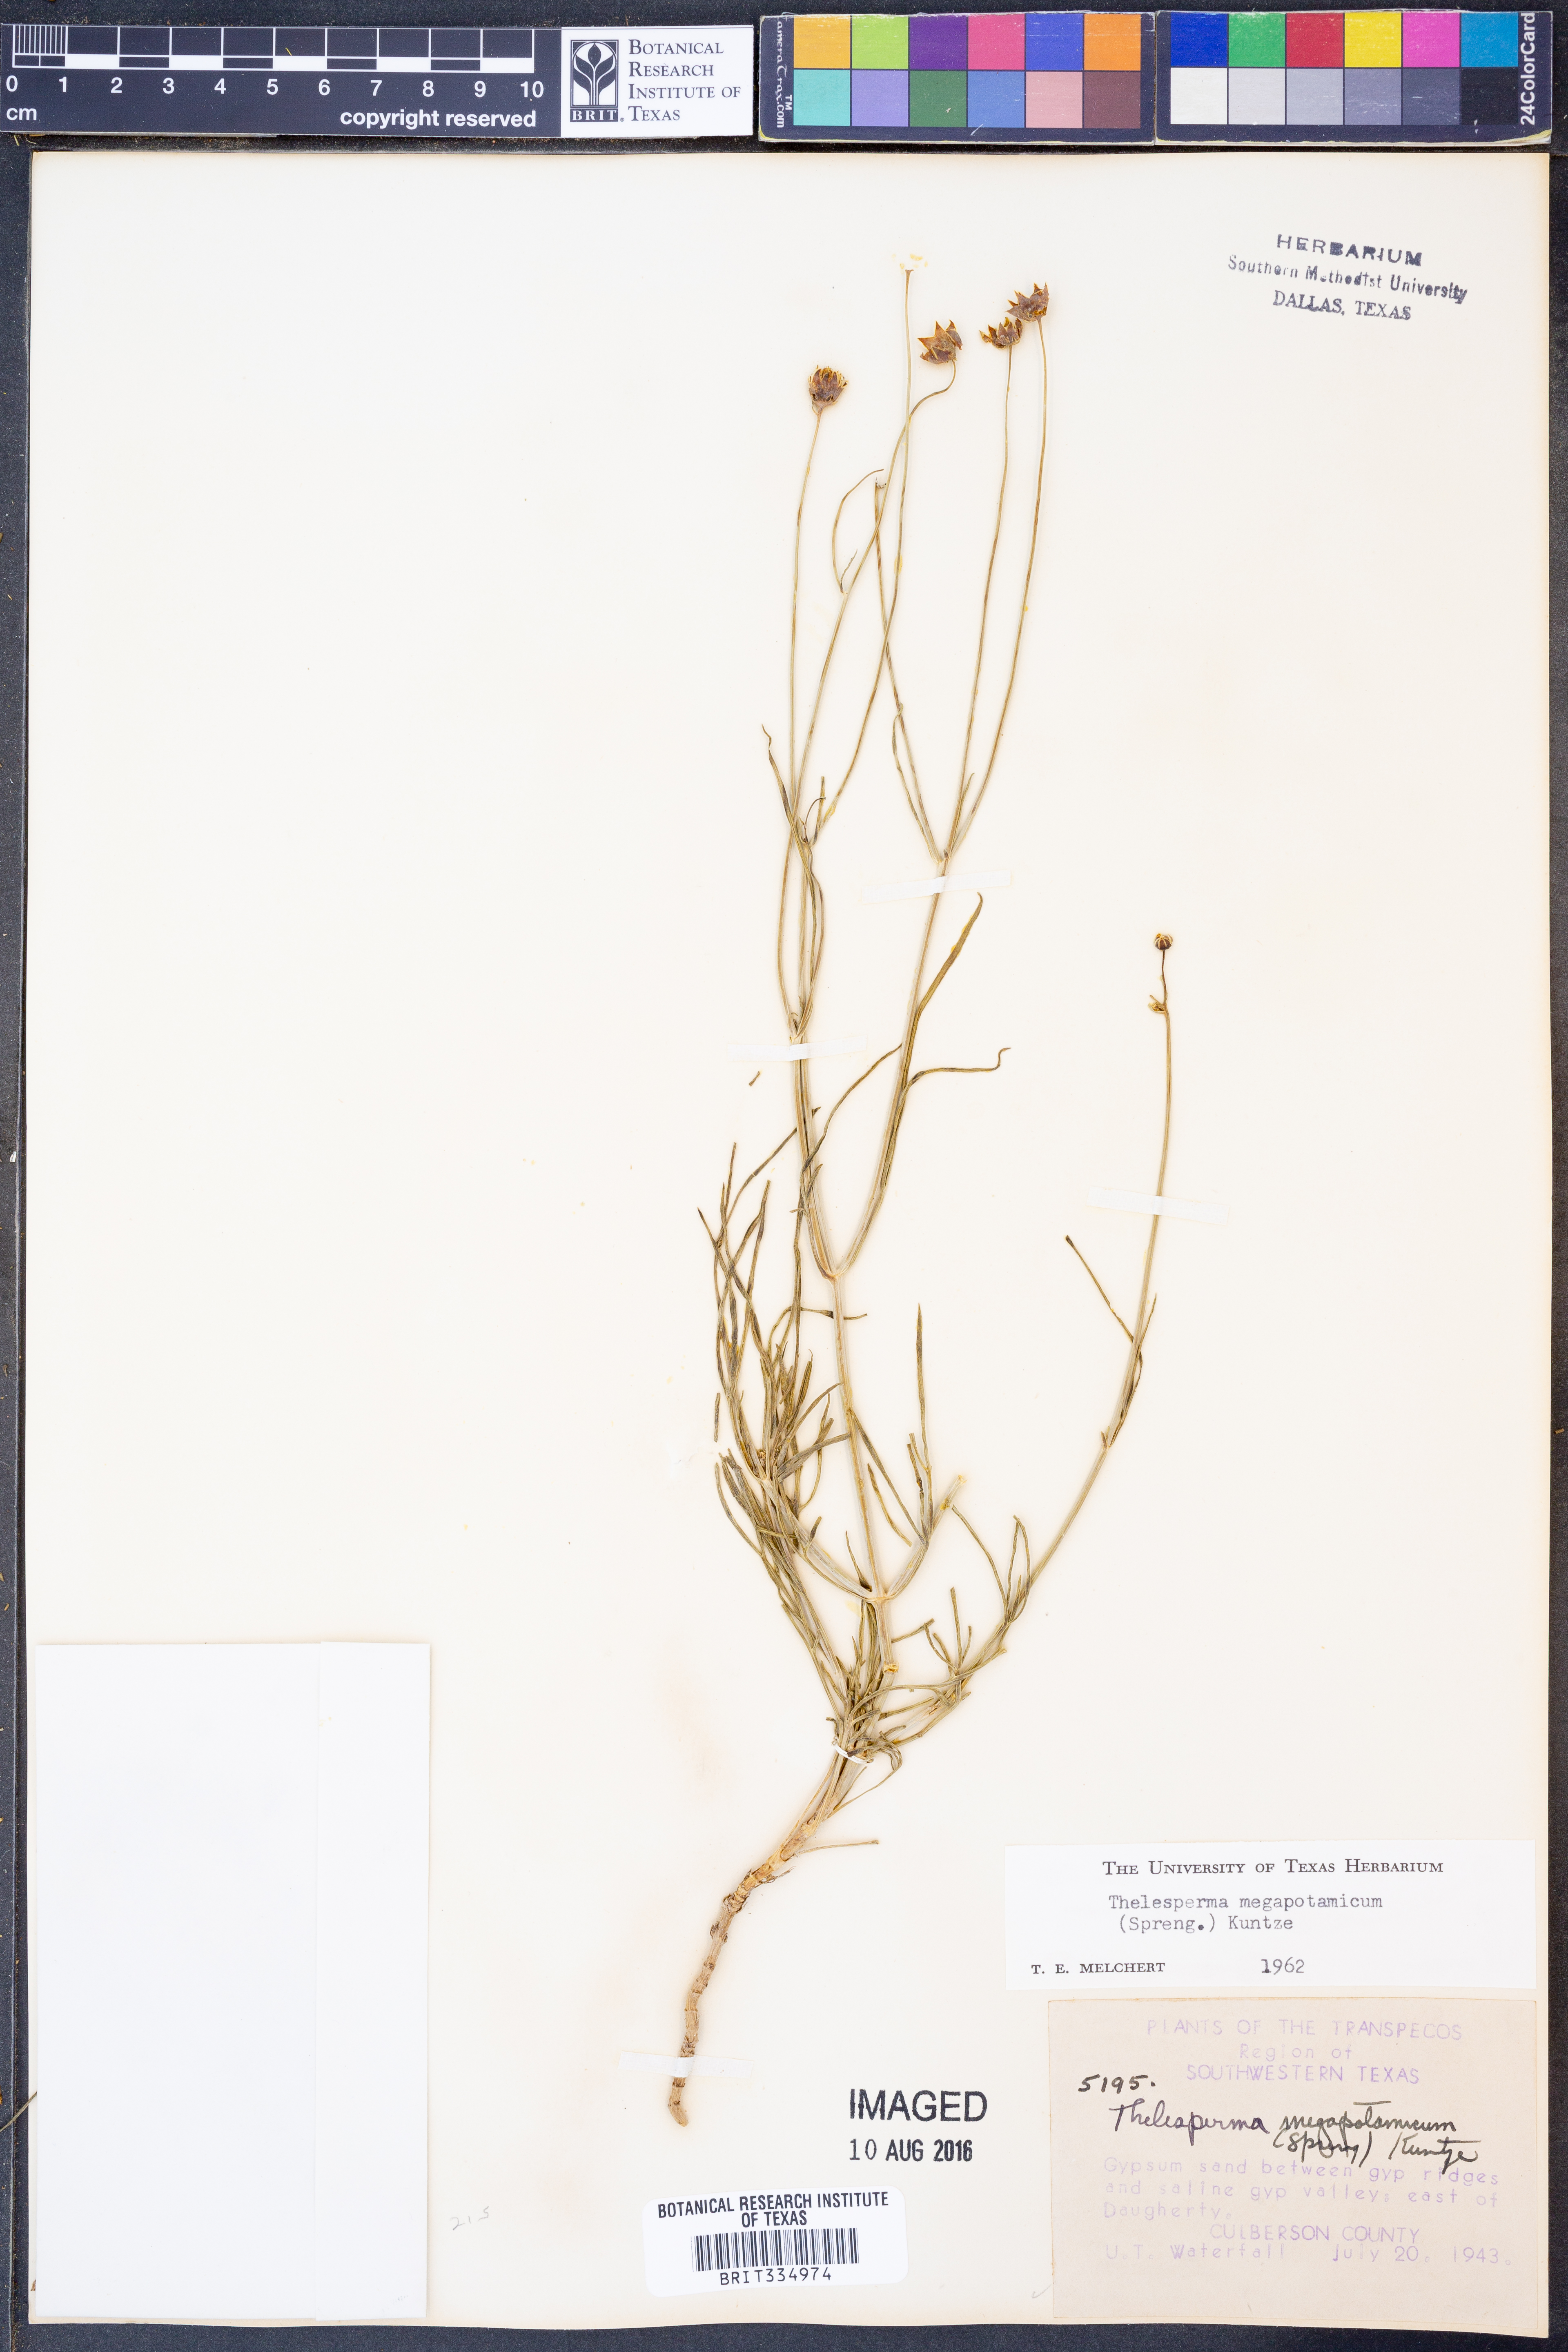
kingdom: Plantae
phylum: Tracheophyta
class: Magnoliopsida
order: Asterales
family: Asteraceae
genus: Thelesperma
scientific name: Thelesperma megapotamicum
